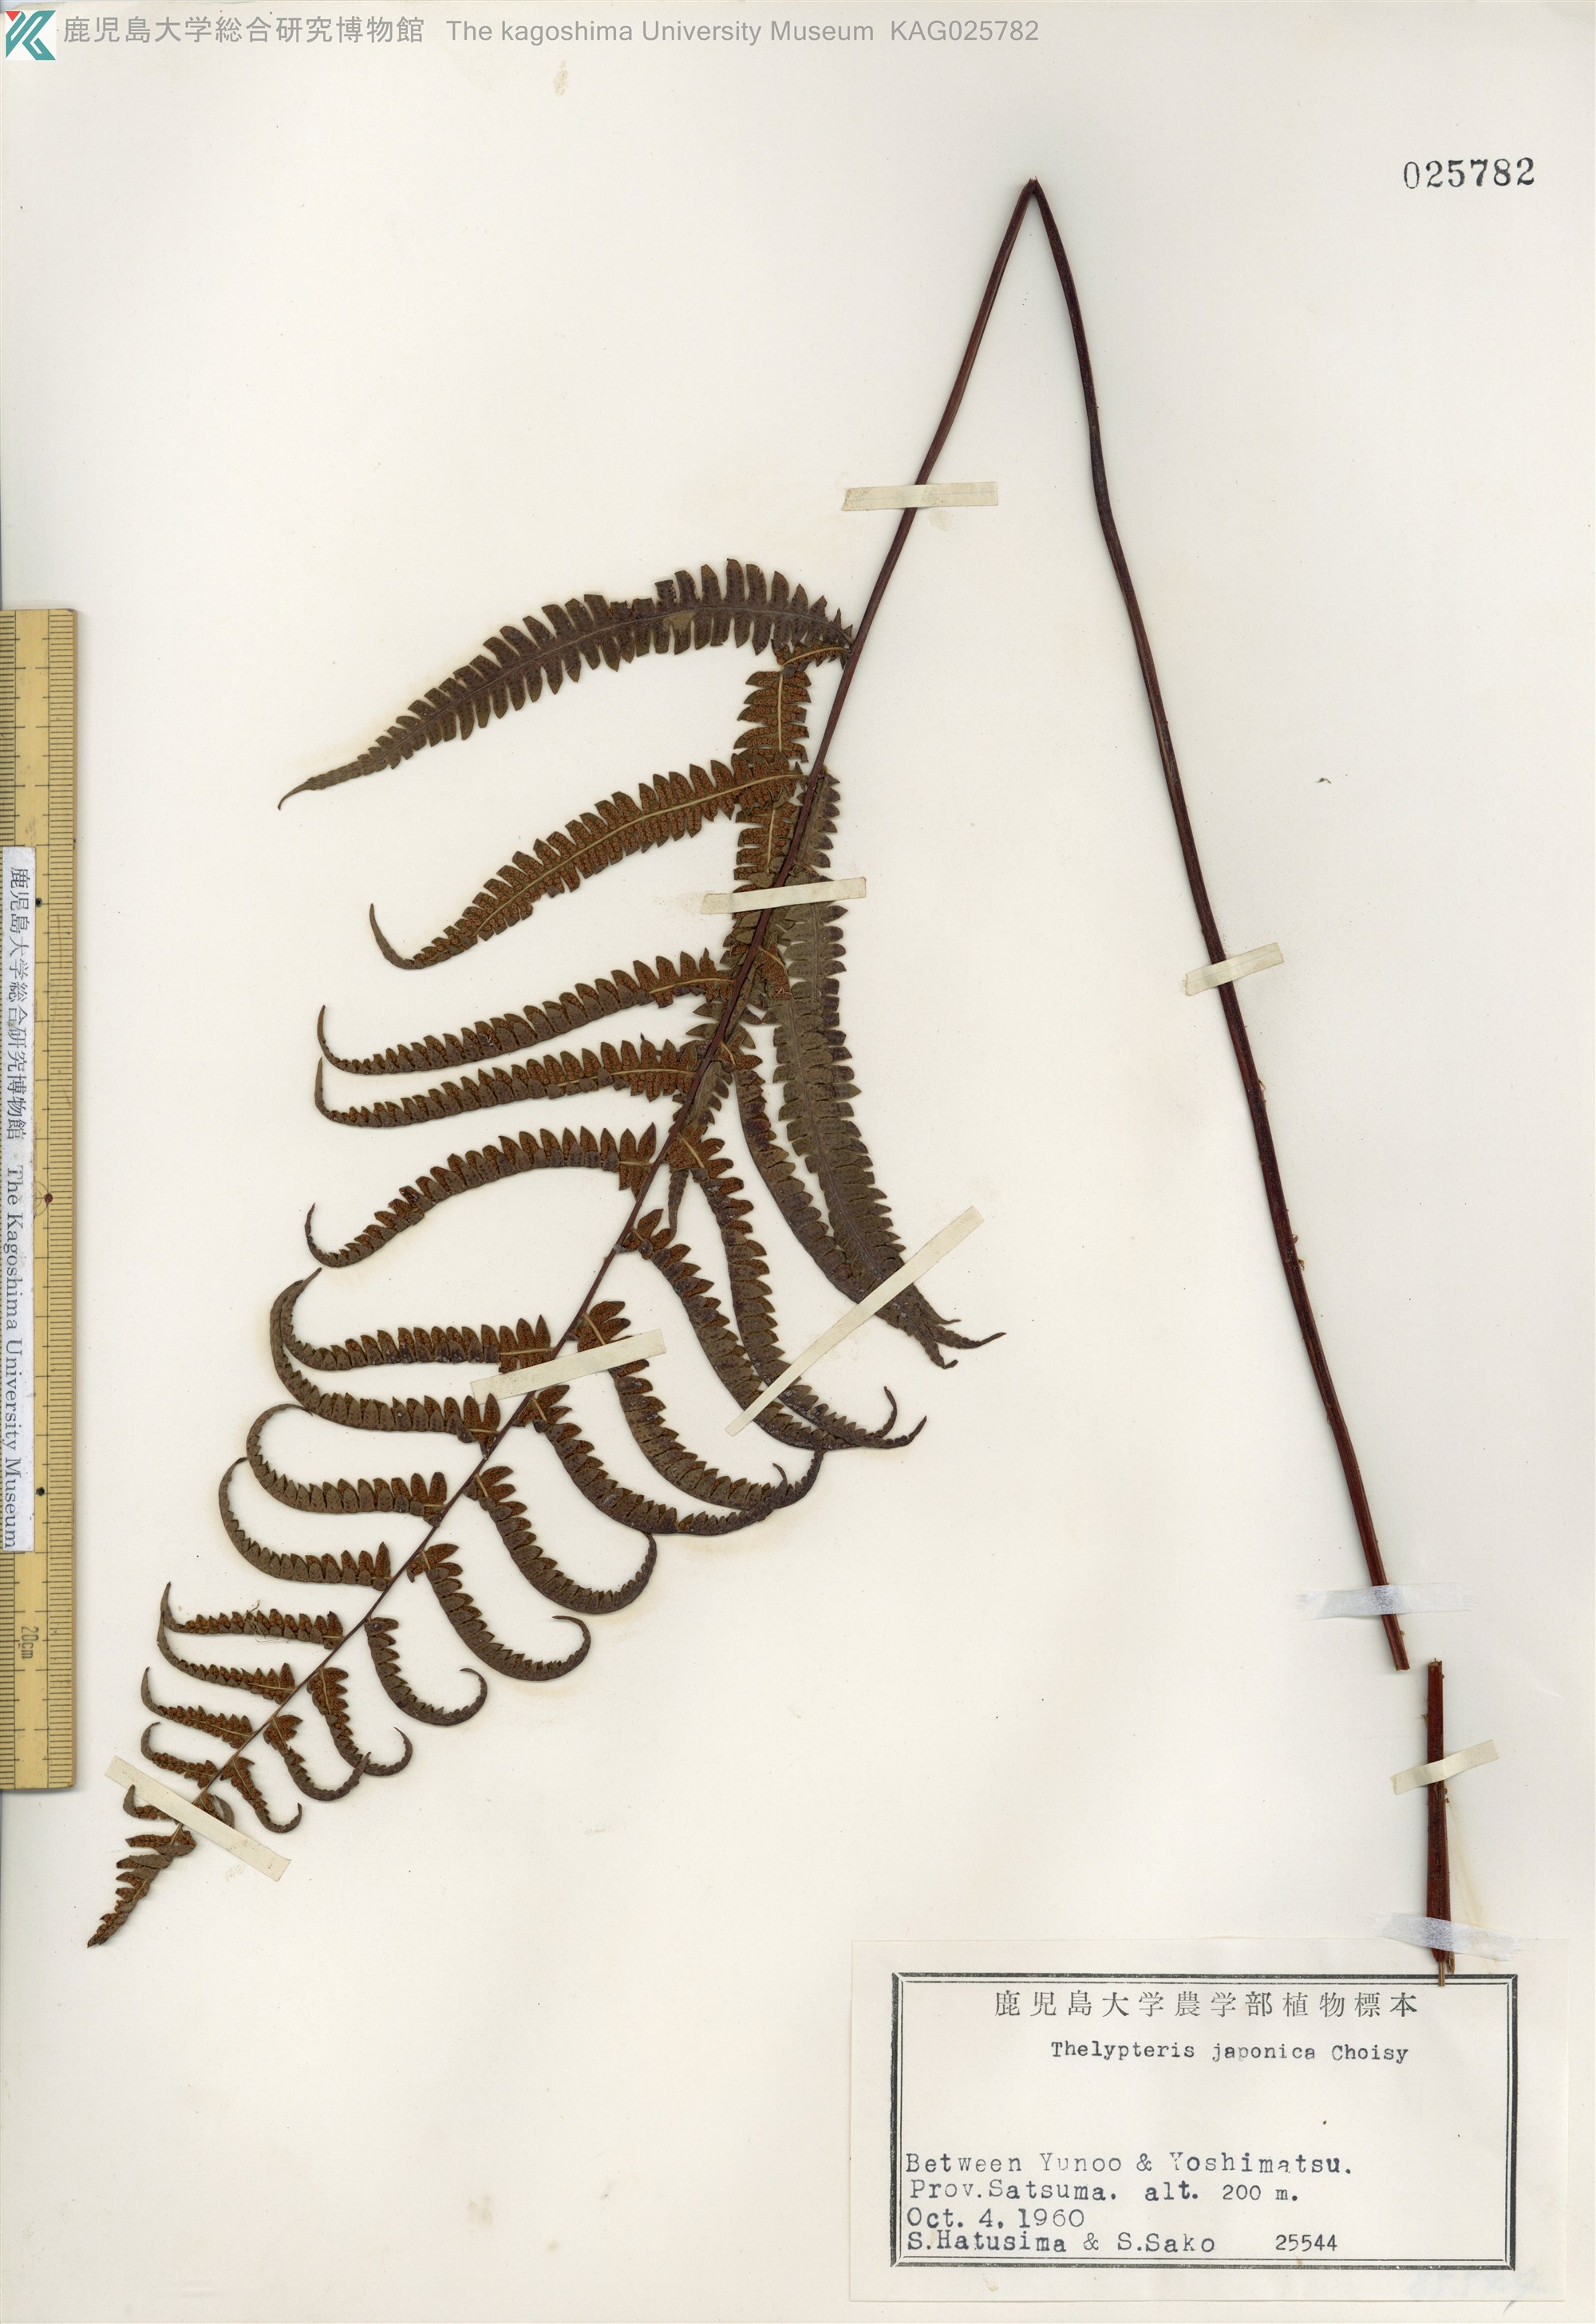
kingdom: Plantae
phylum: Tracheophyta
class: Polypodiopsida
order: Polypodiales
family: Thelypteridaceae
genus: Coryphopteris
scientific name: Coryphopteris japonica
